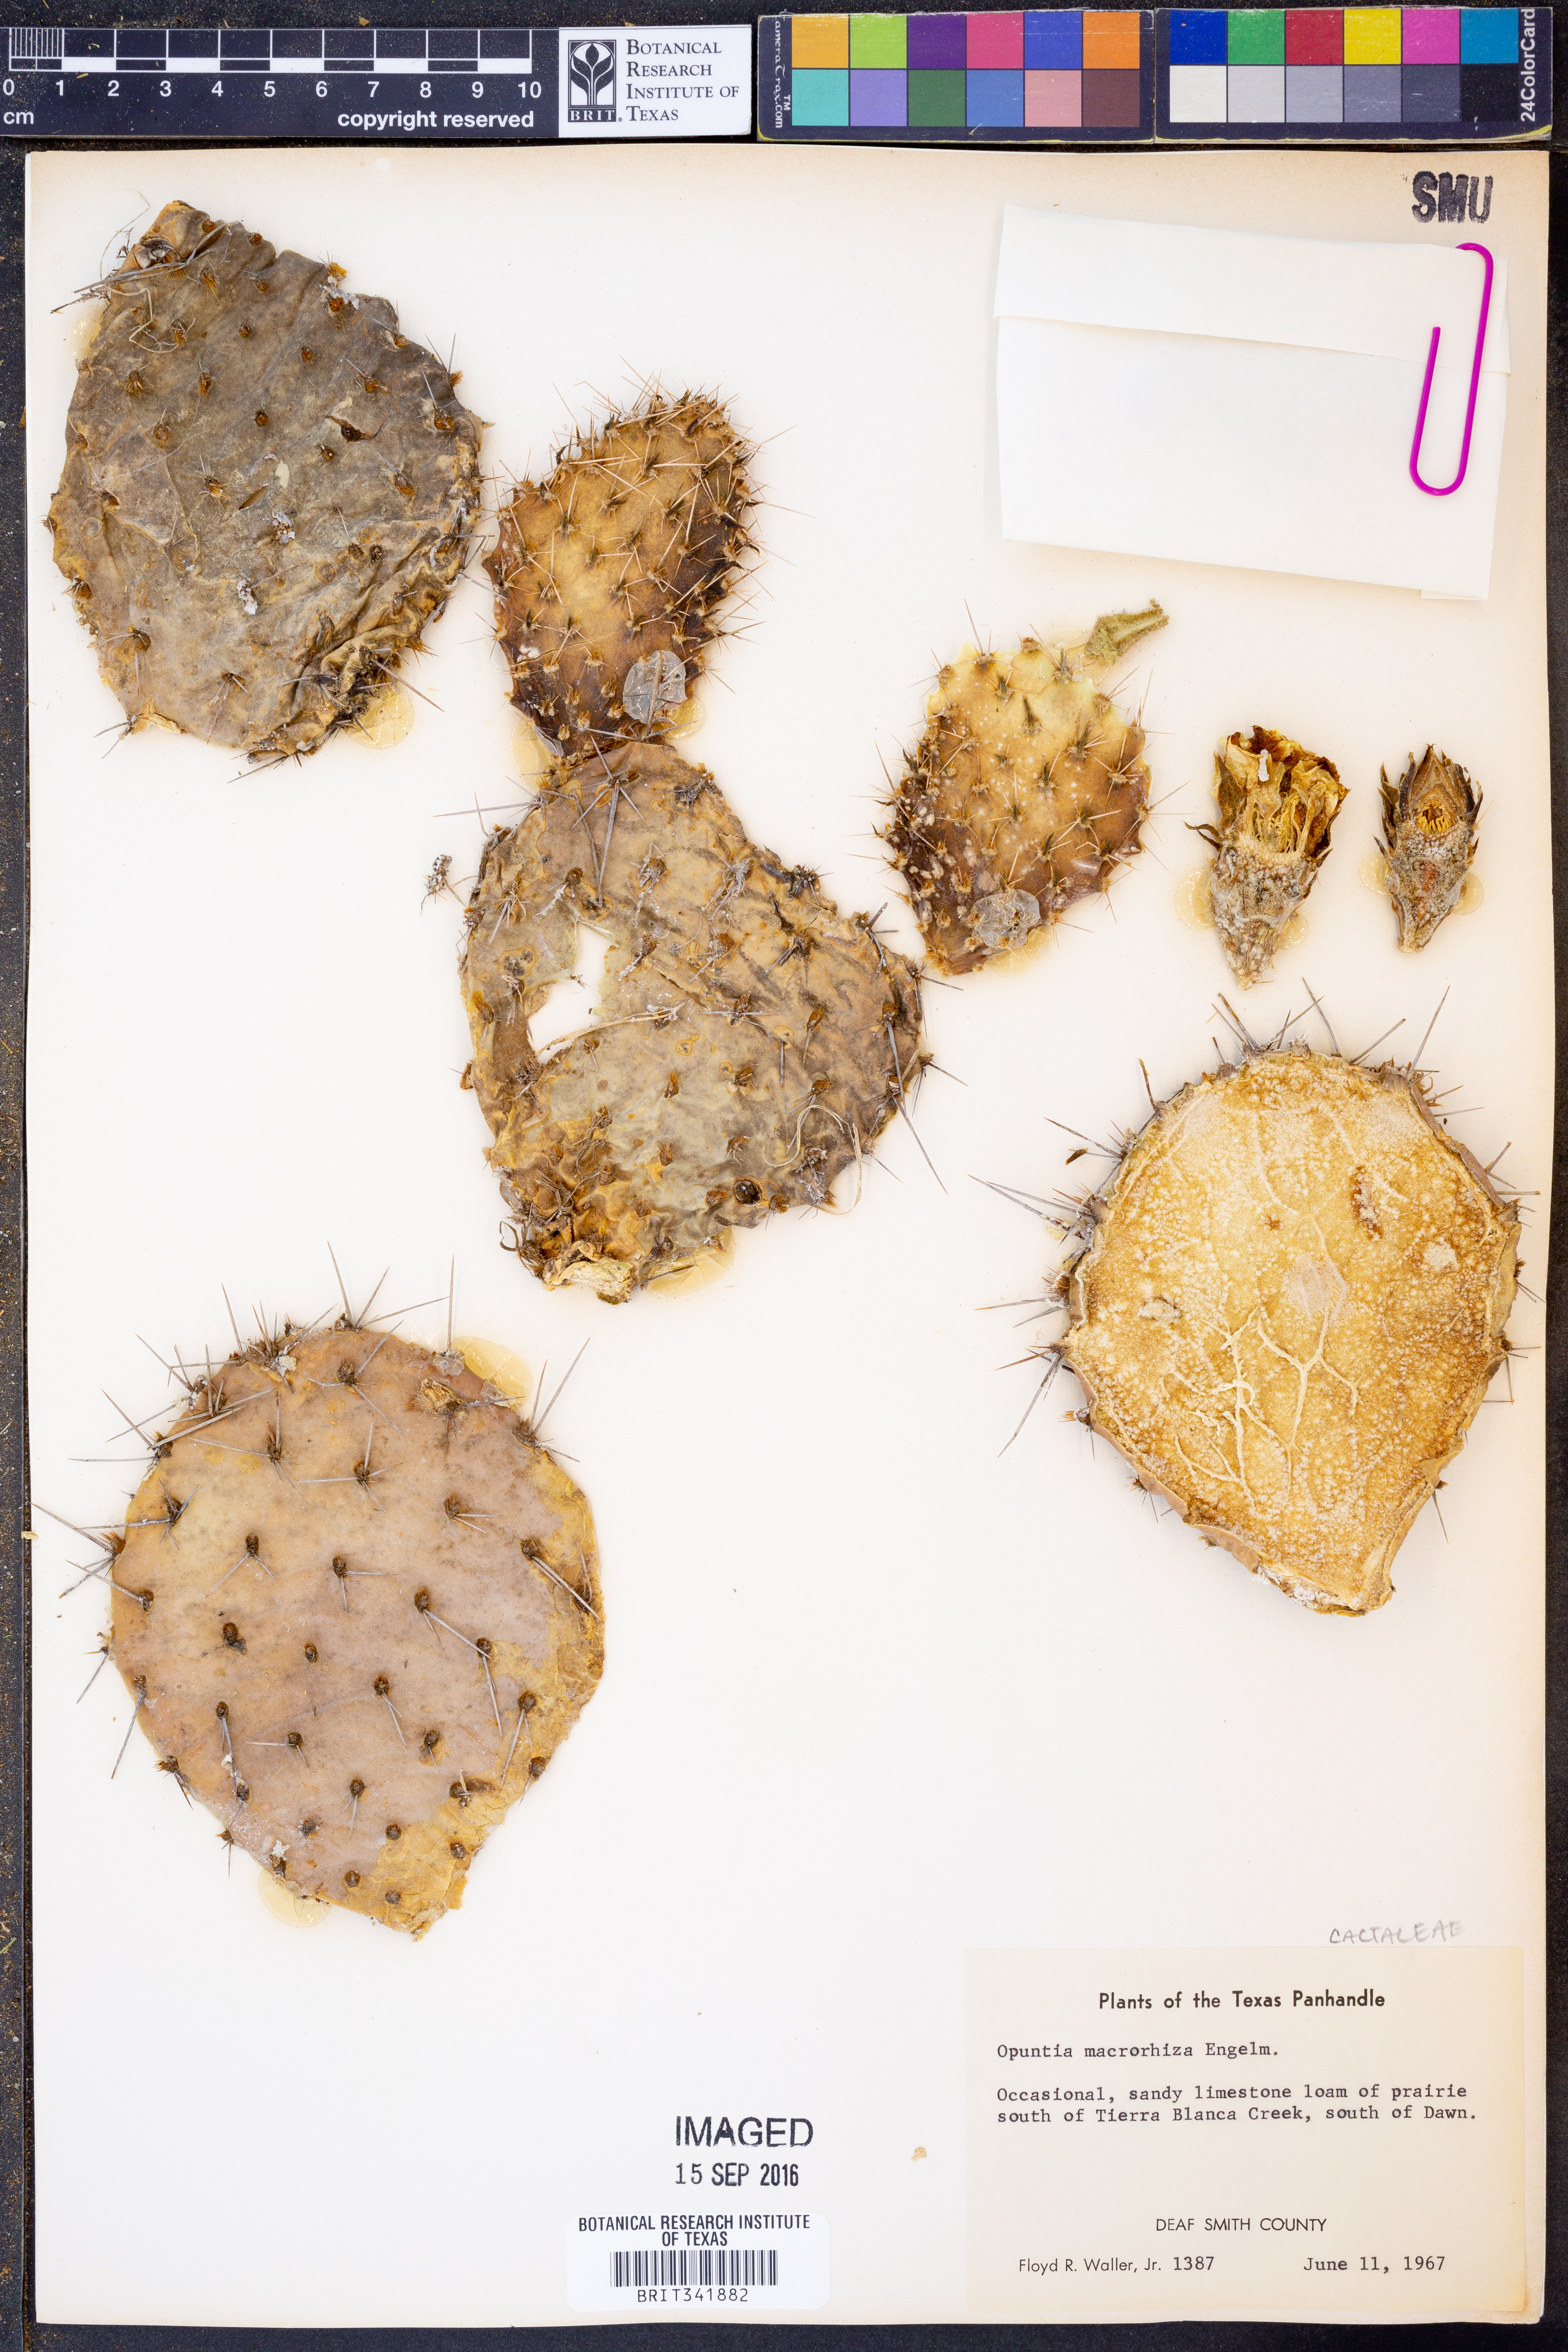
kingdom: Plantae
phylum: Tracheophyta
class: Magnoliopsida
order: Caryophyllales
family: Cactaceae
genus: Opuntia
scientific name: Opuntia macrorhiza
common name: Grassland pricklypear
